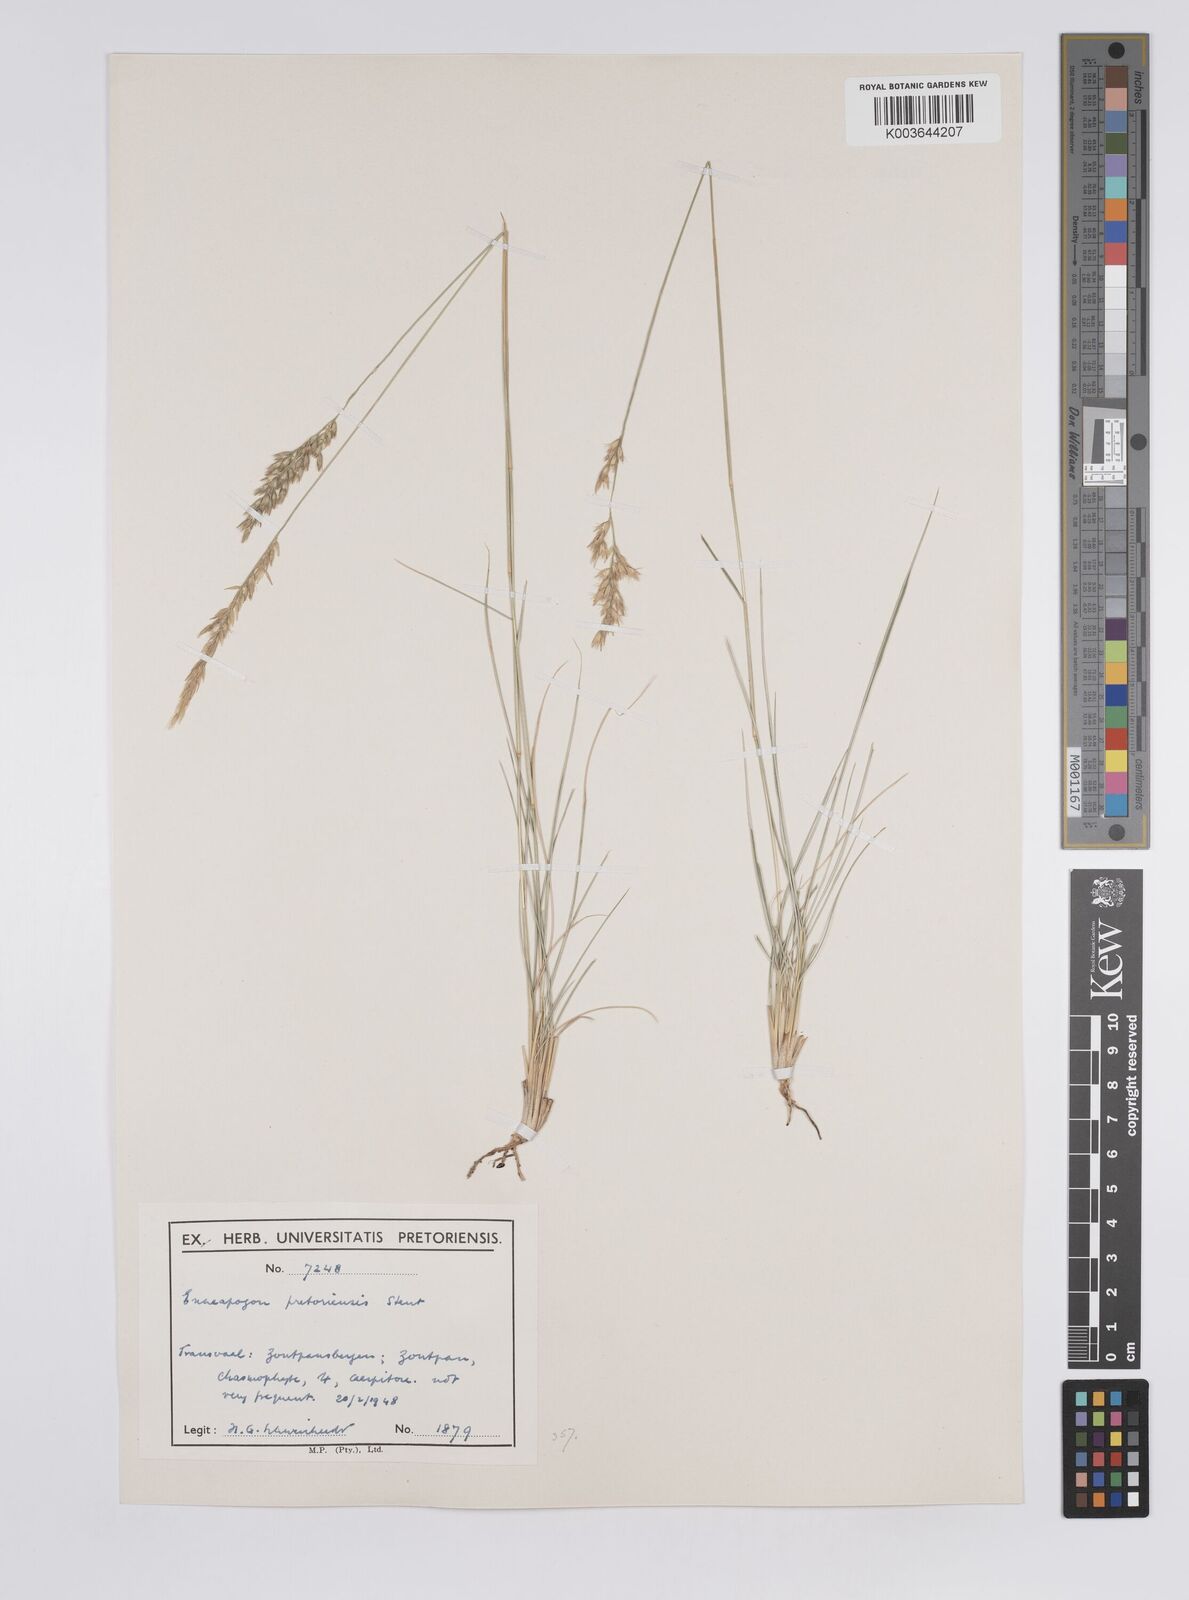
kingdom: Plantae
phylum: Tracheophyta
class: Liliopsida
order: Poales
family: Poaceae
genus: Enneapogon
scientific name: Enneapogon pretoriensis
